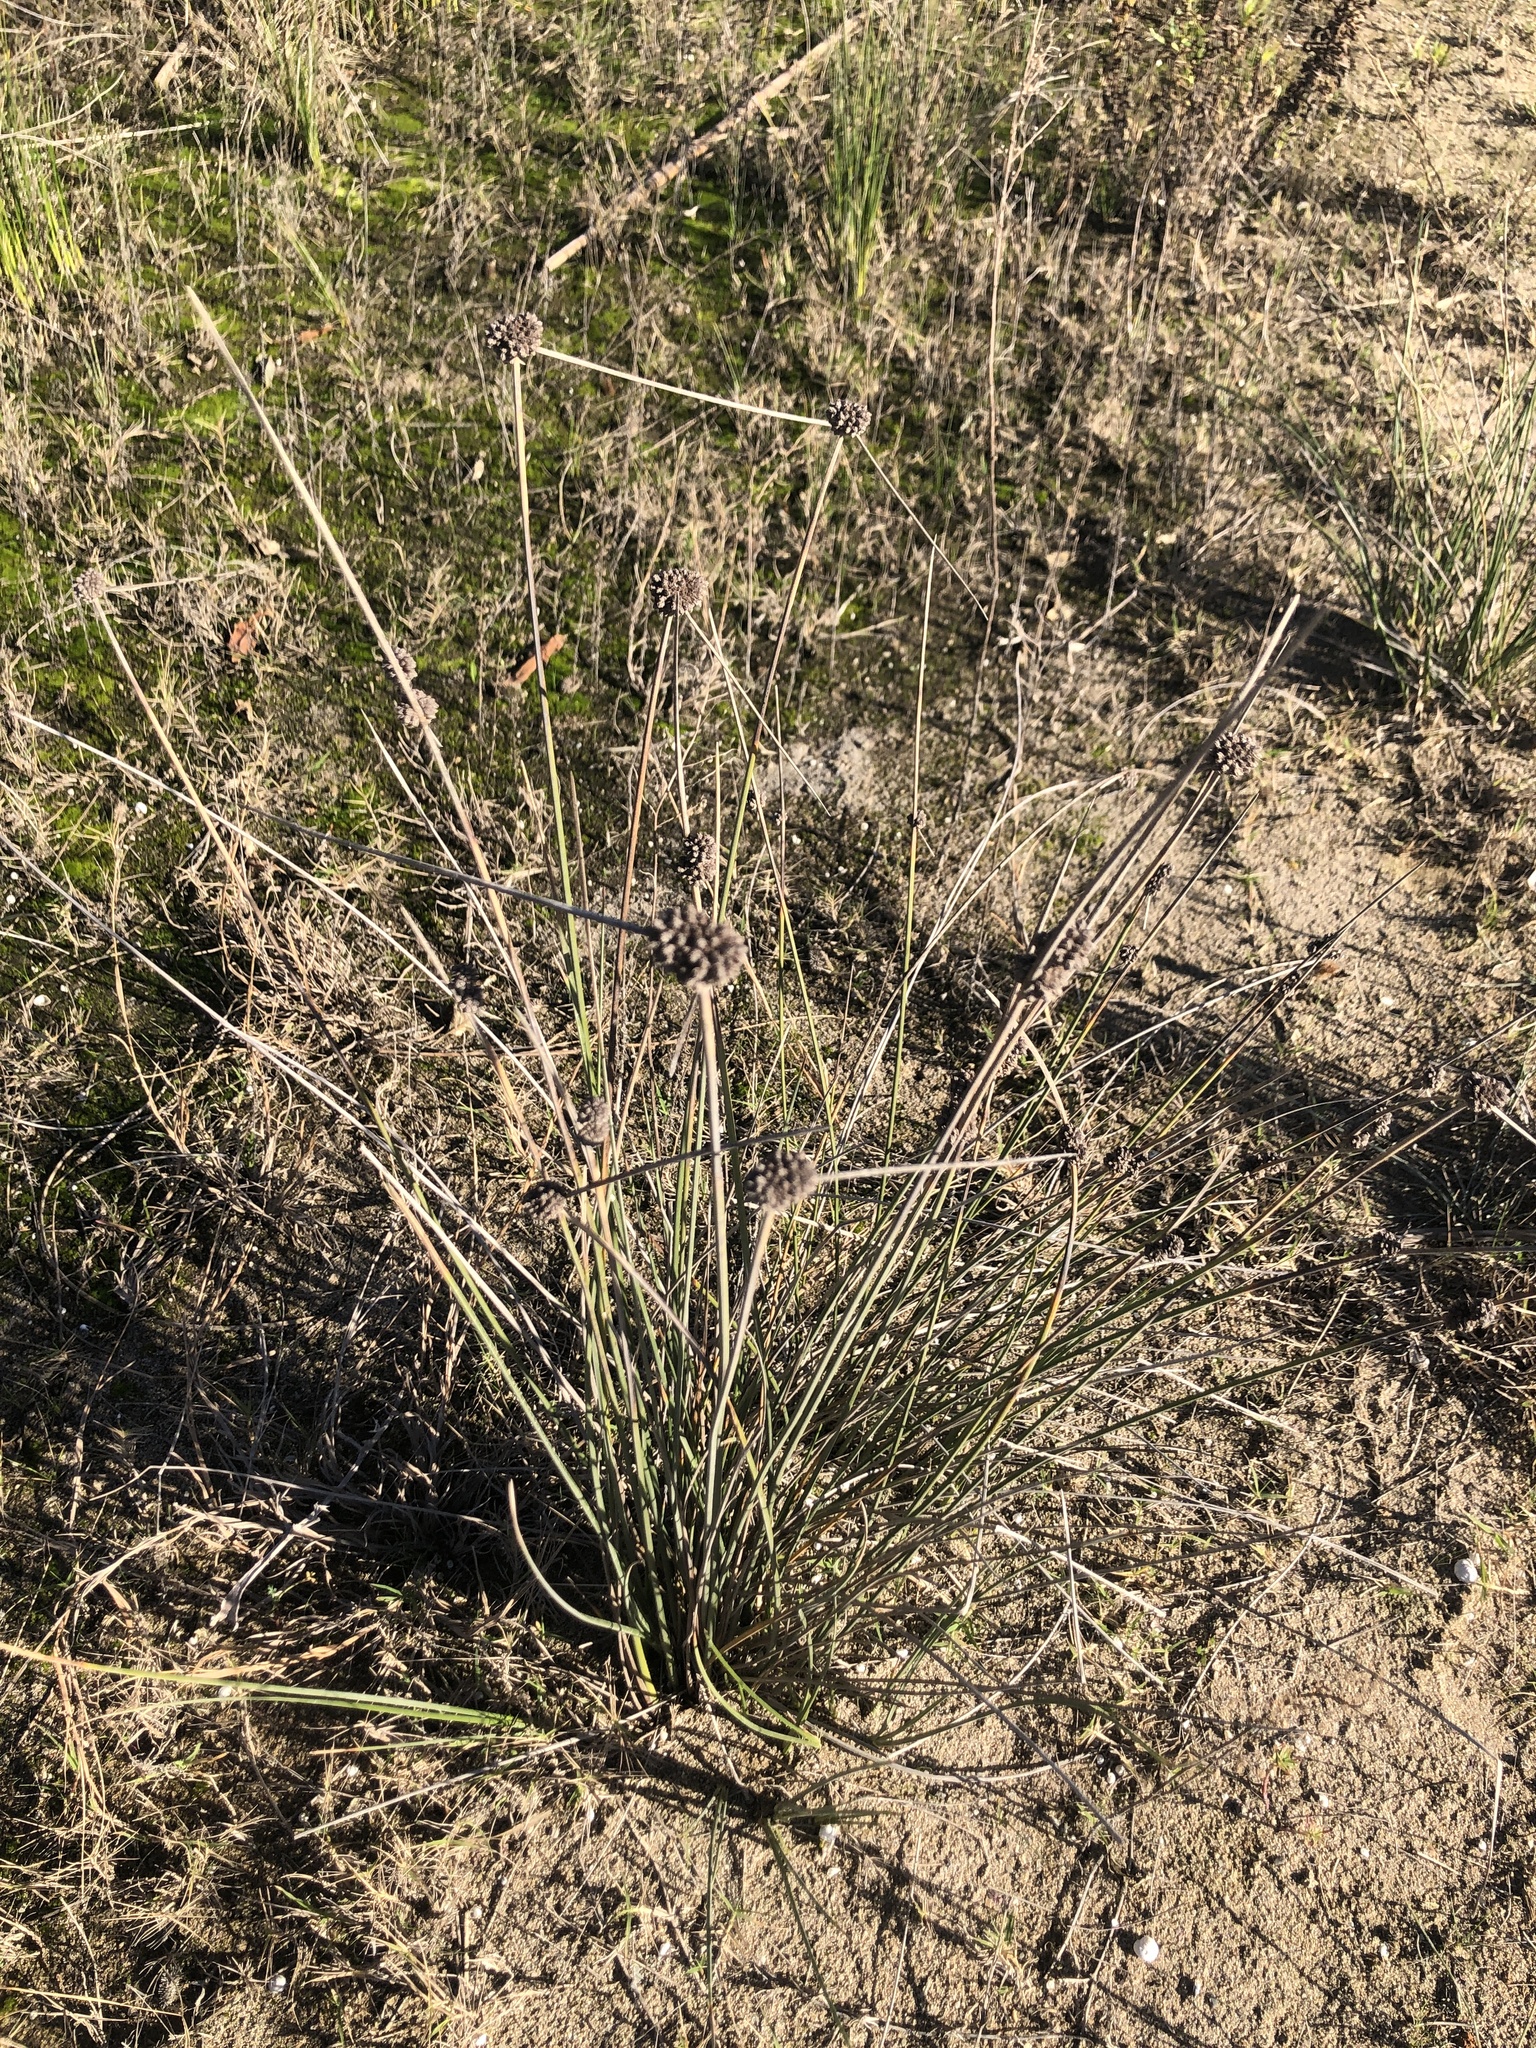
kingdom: Plantae
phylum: Tracheophyta
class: Liliopsida
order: Poales
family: Juncaceae
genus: Juncus
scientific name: Juncus acutus
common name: Sharp rush
